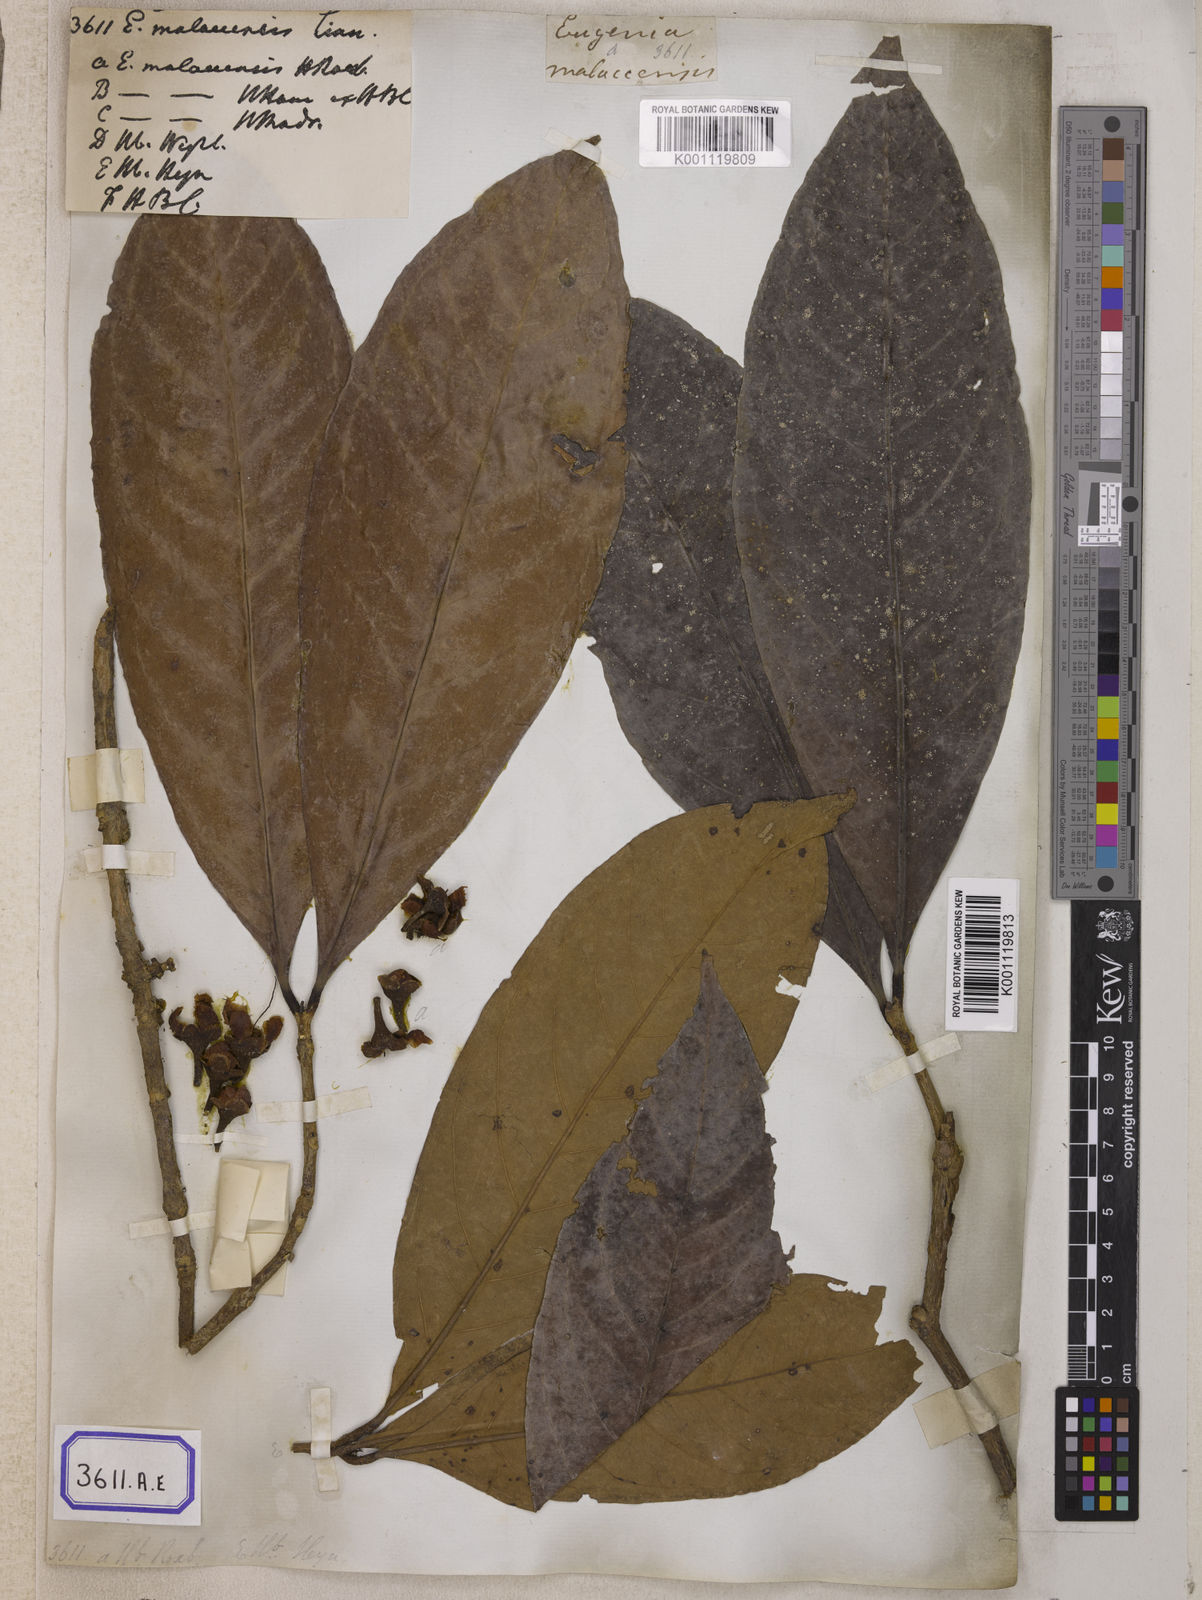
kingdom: Plantae
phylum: Tracheophyta
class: Magnoliopsida
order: Myrtales
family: Myrtaceae
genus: Syzygium
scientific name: Syzygium malaccense
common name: Malaysian apple
